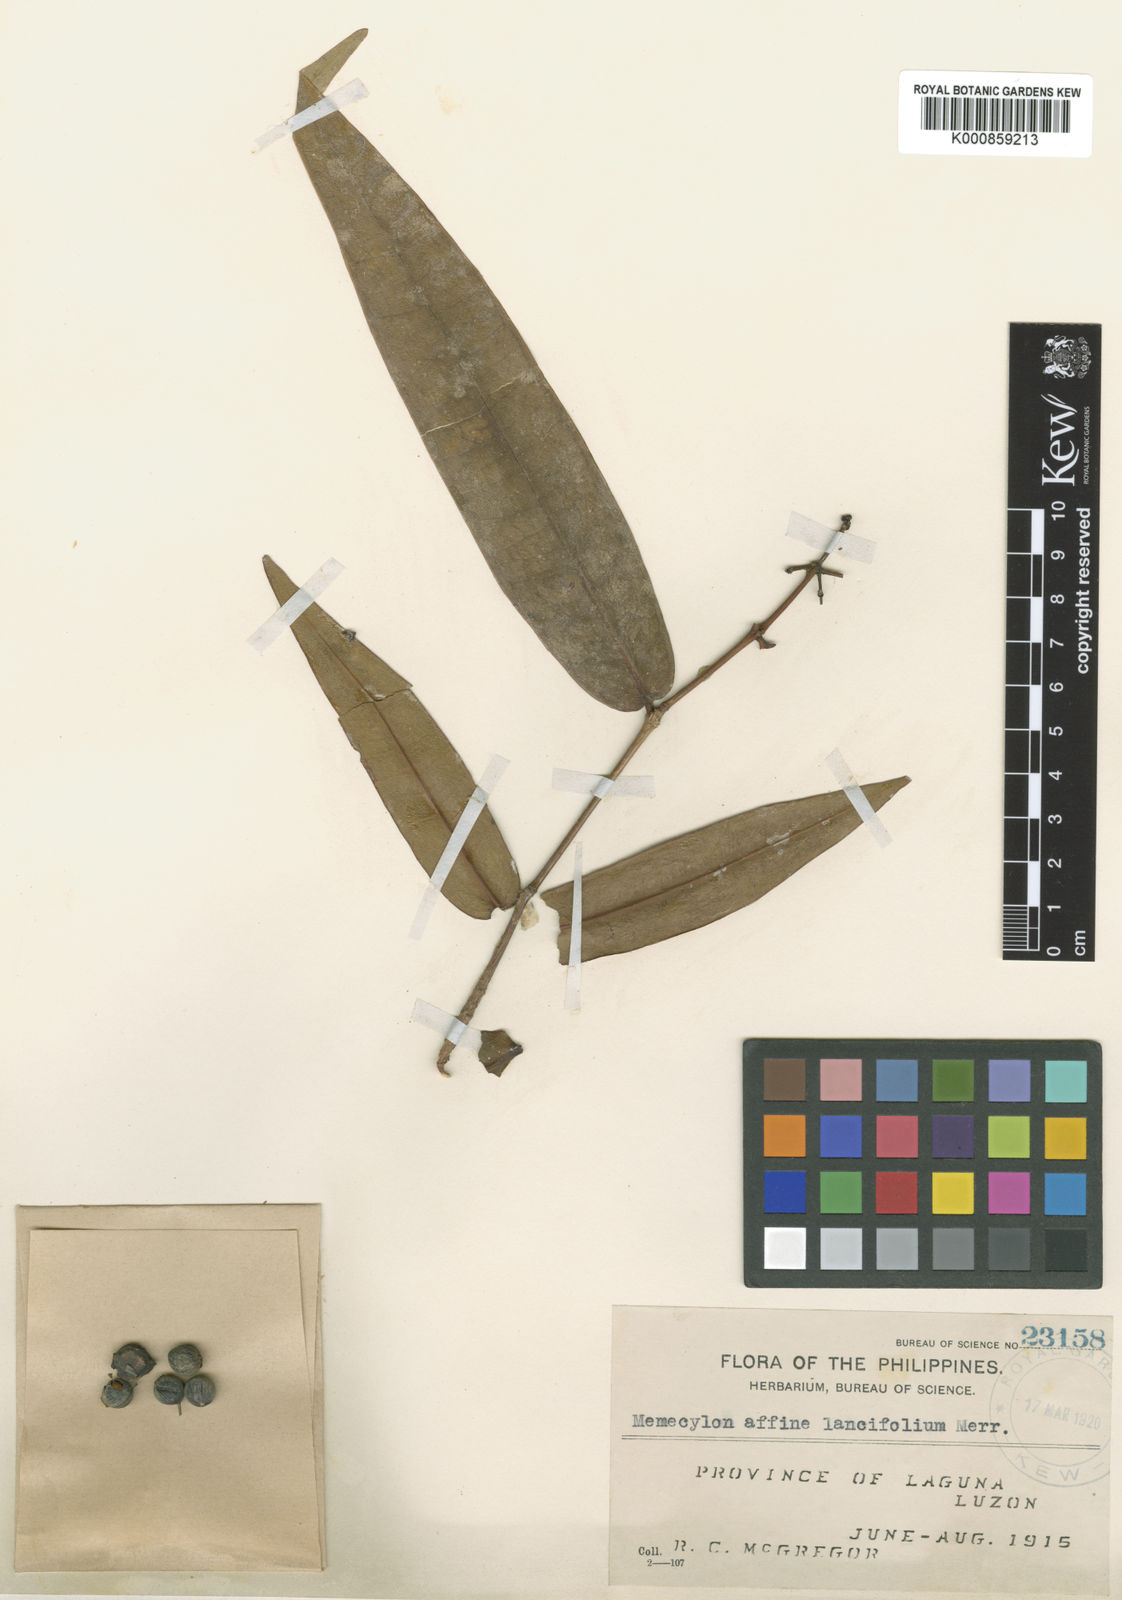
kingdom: Plantae
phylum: Tracheophyta
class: Magnoliopsida
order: Myrtales
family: Melastomataceae
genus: Memecylon
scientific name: Memecylon affine
